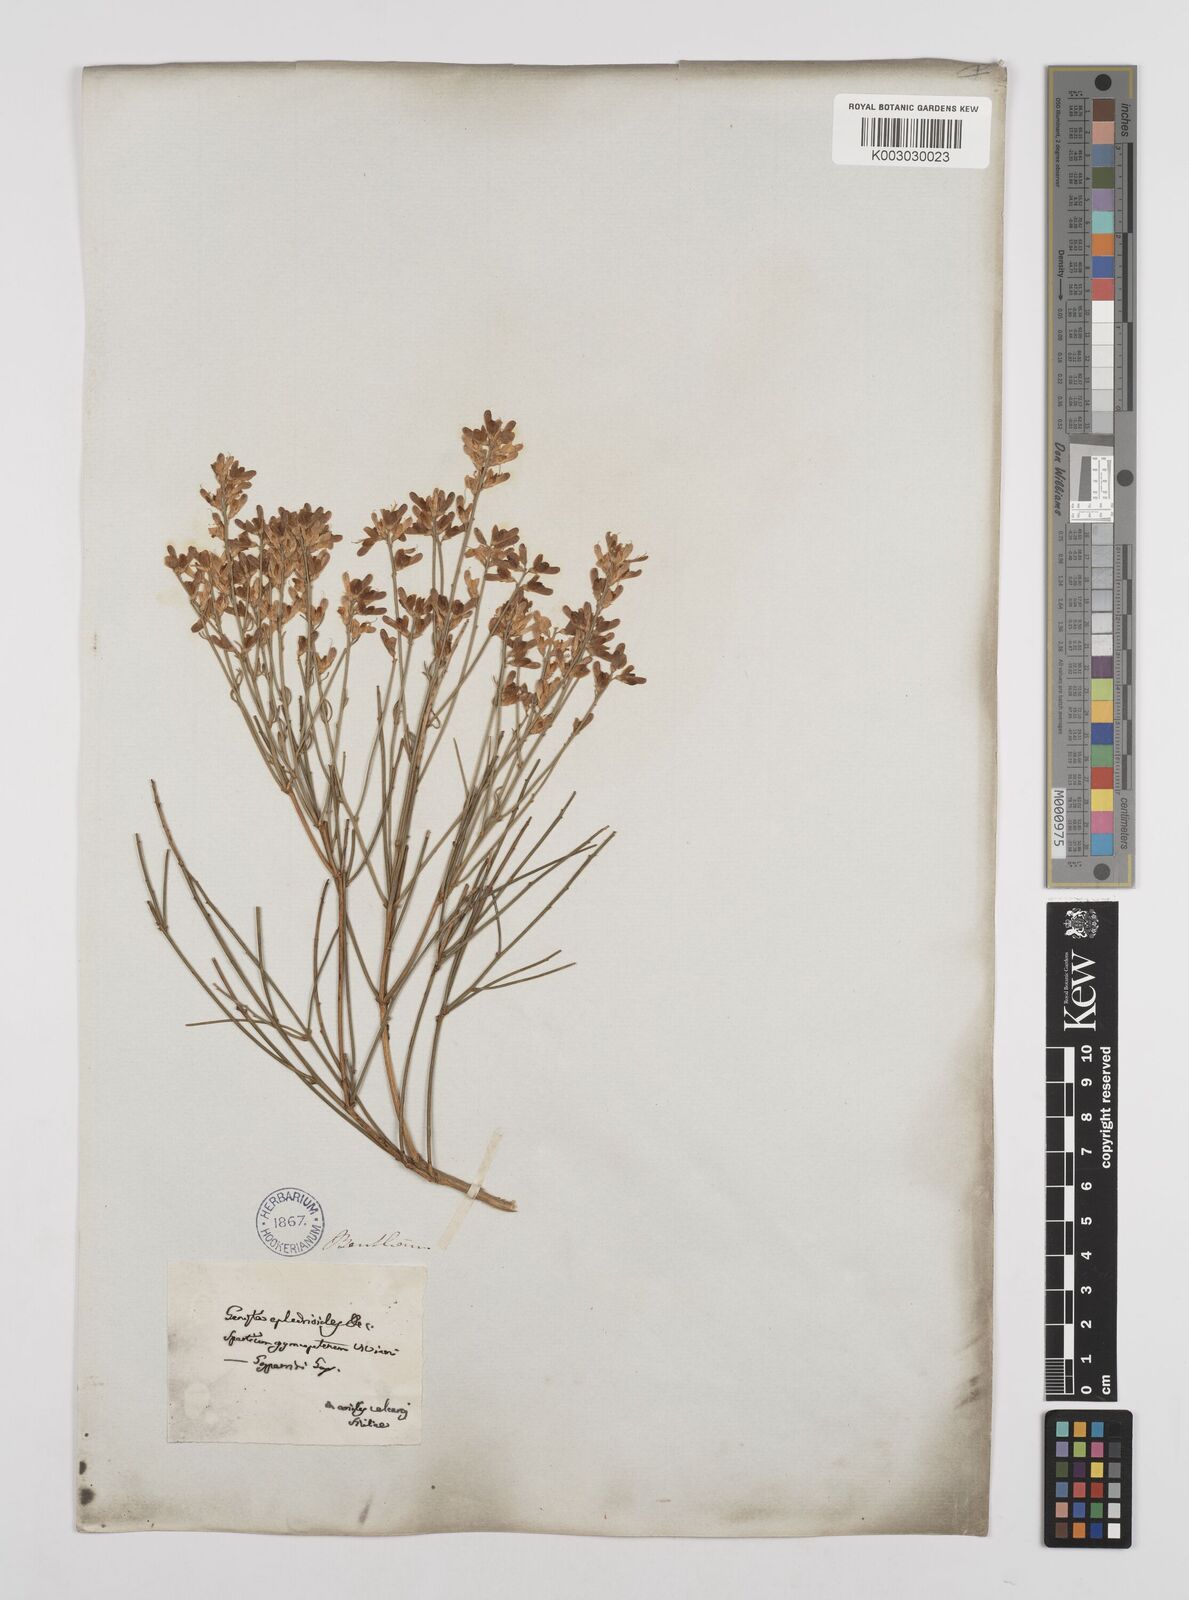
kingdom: Plantae
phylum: Tracheophyta
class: Magnoliopsida
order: Fabales
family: Fabaceae
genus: Genista
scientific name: Genista ephedroides
